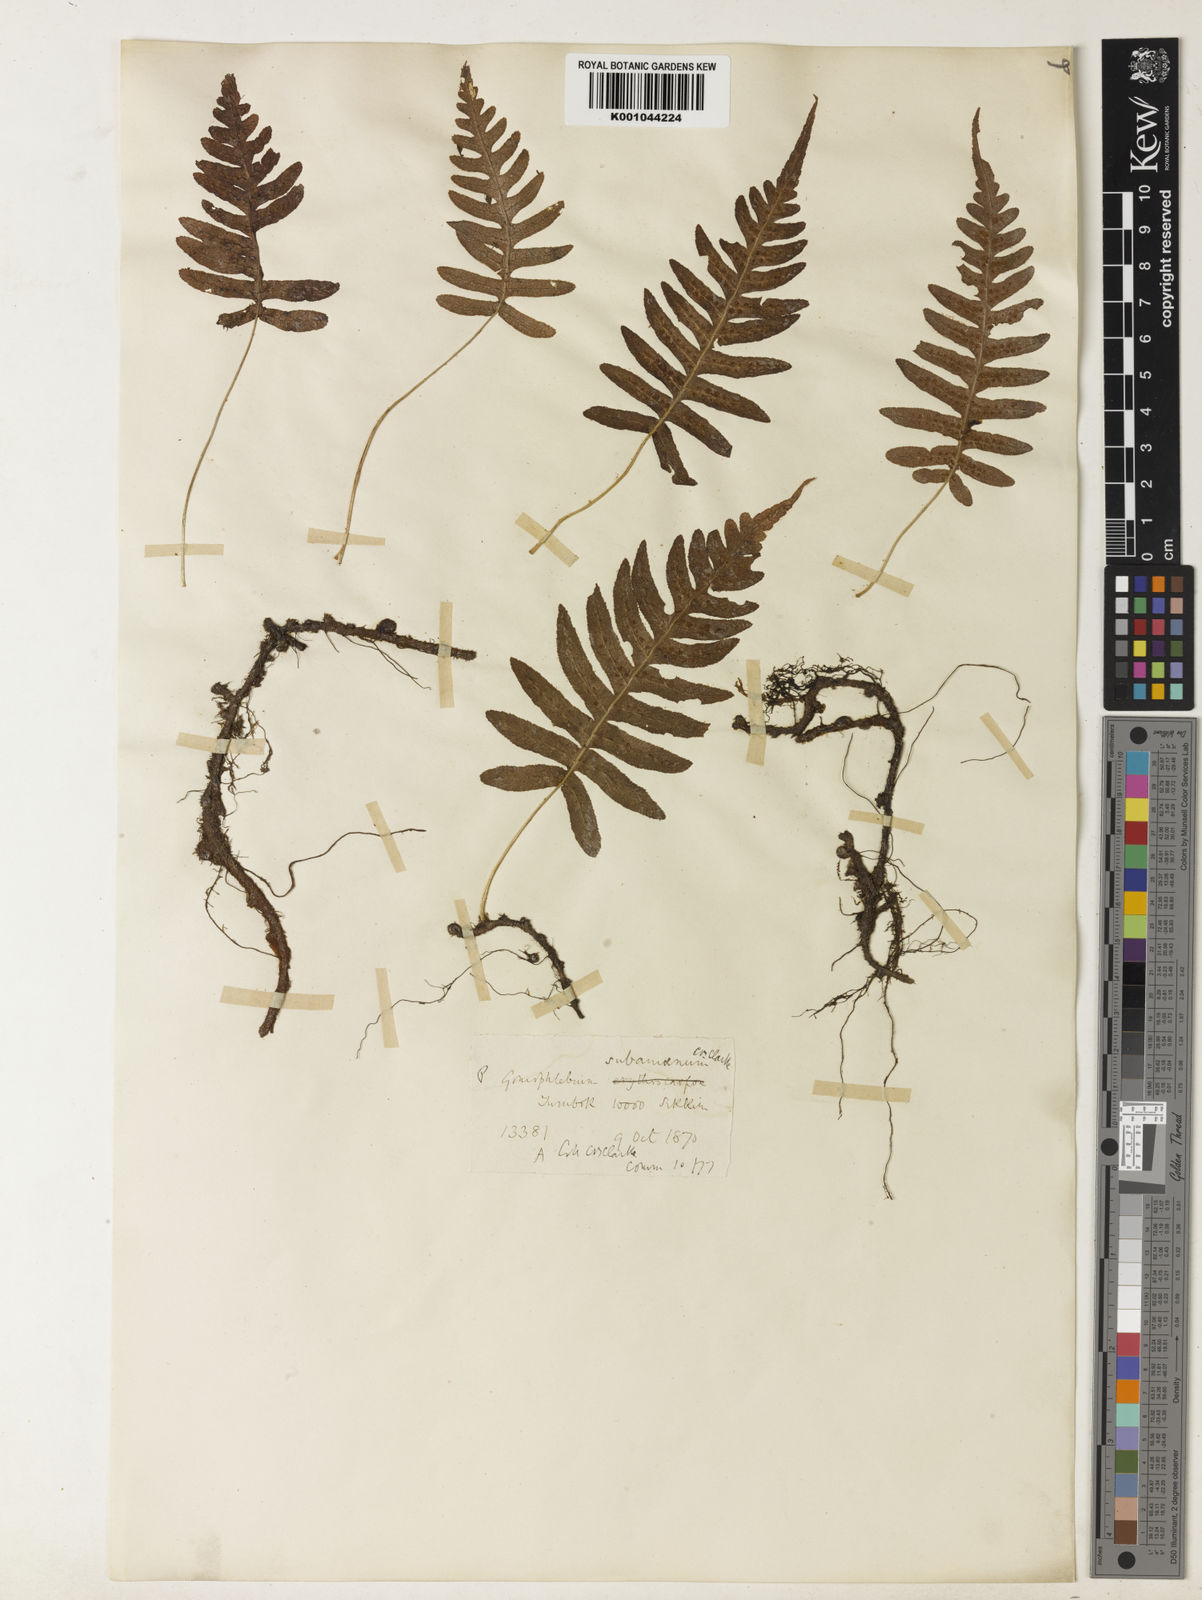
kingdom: Plantae
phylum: Tracheophyta
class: Polypodiopsida
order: Polypodiales
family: Polypodiaceae
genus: Goniophlebium
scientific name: Goniophlebium subamoenum
